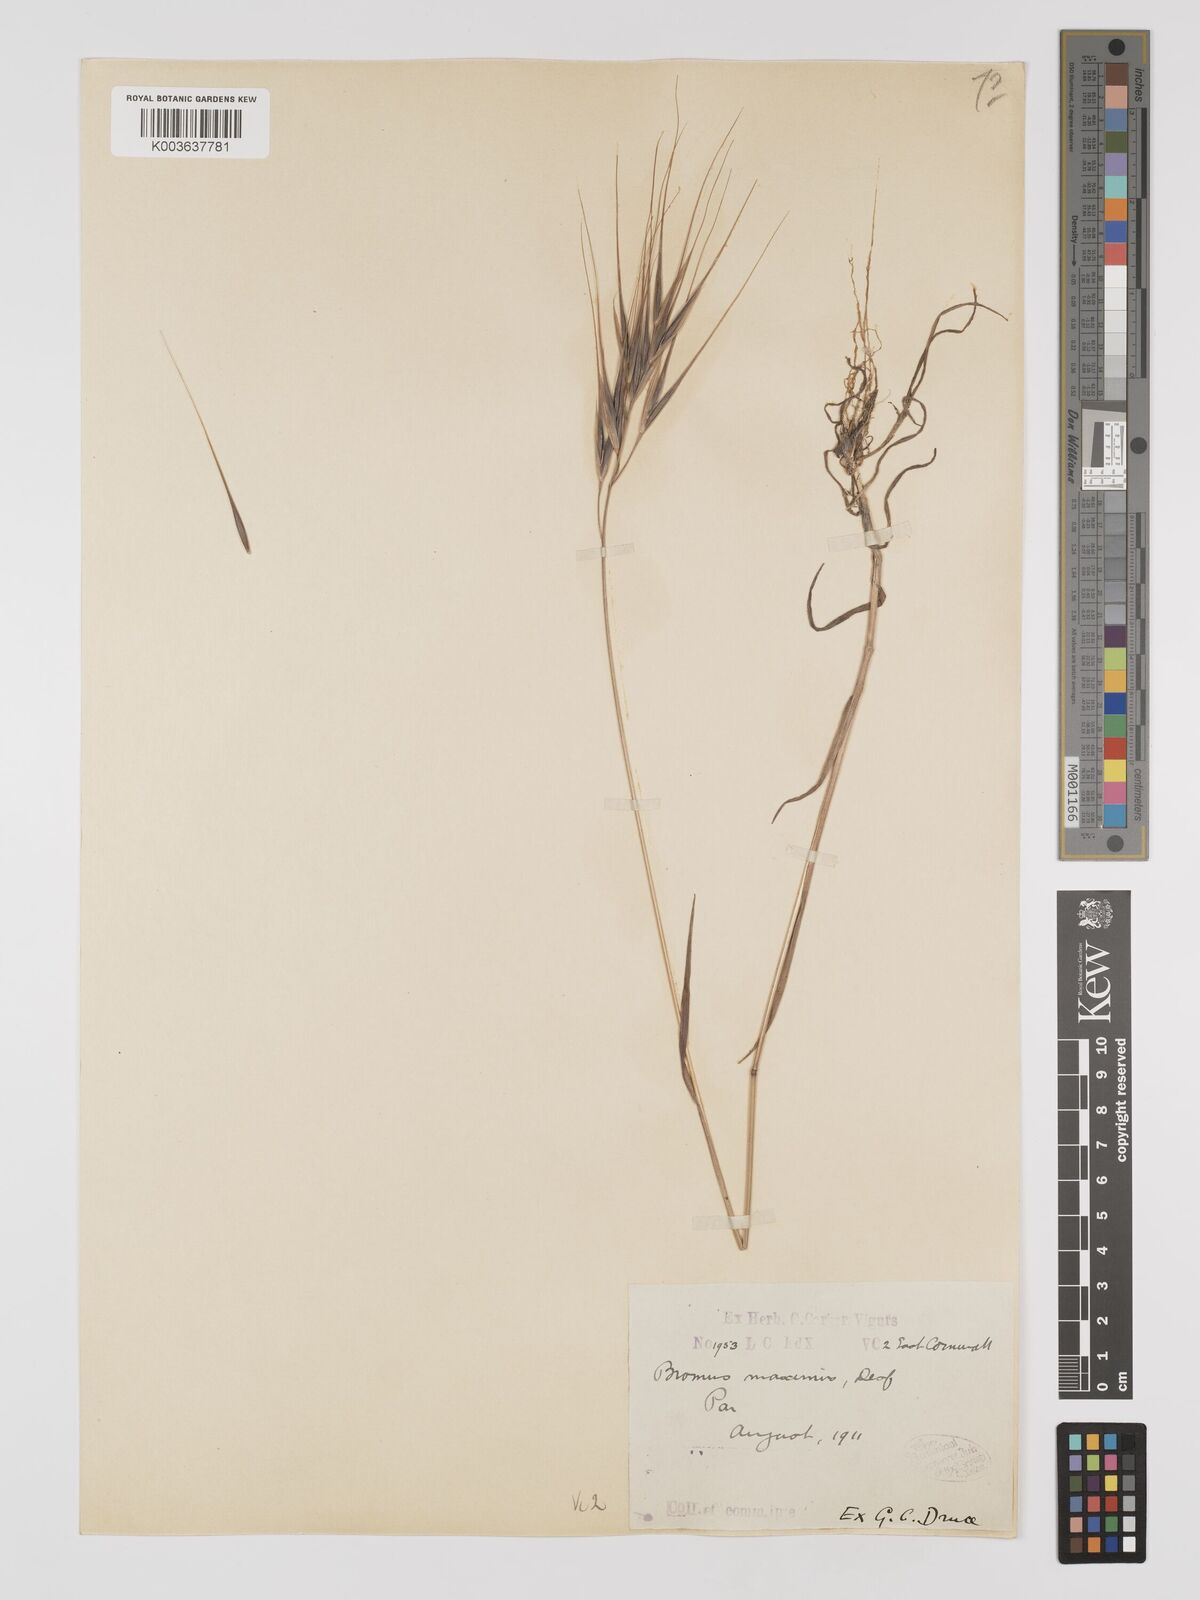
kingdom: Plantae
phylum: Tracheophyta
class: Liliopsida
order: Poales
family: Poaceae
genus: Bromus
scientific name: Bromus
